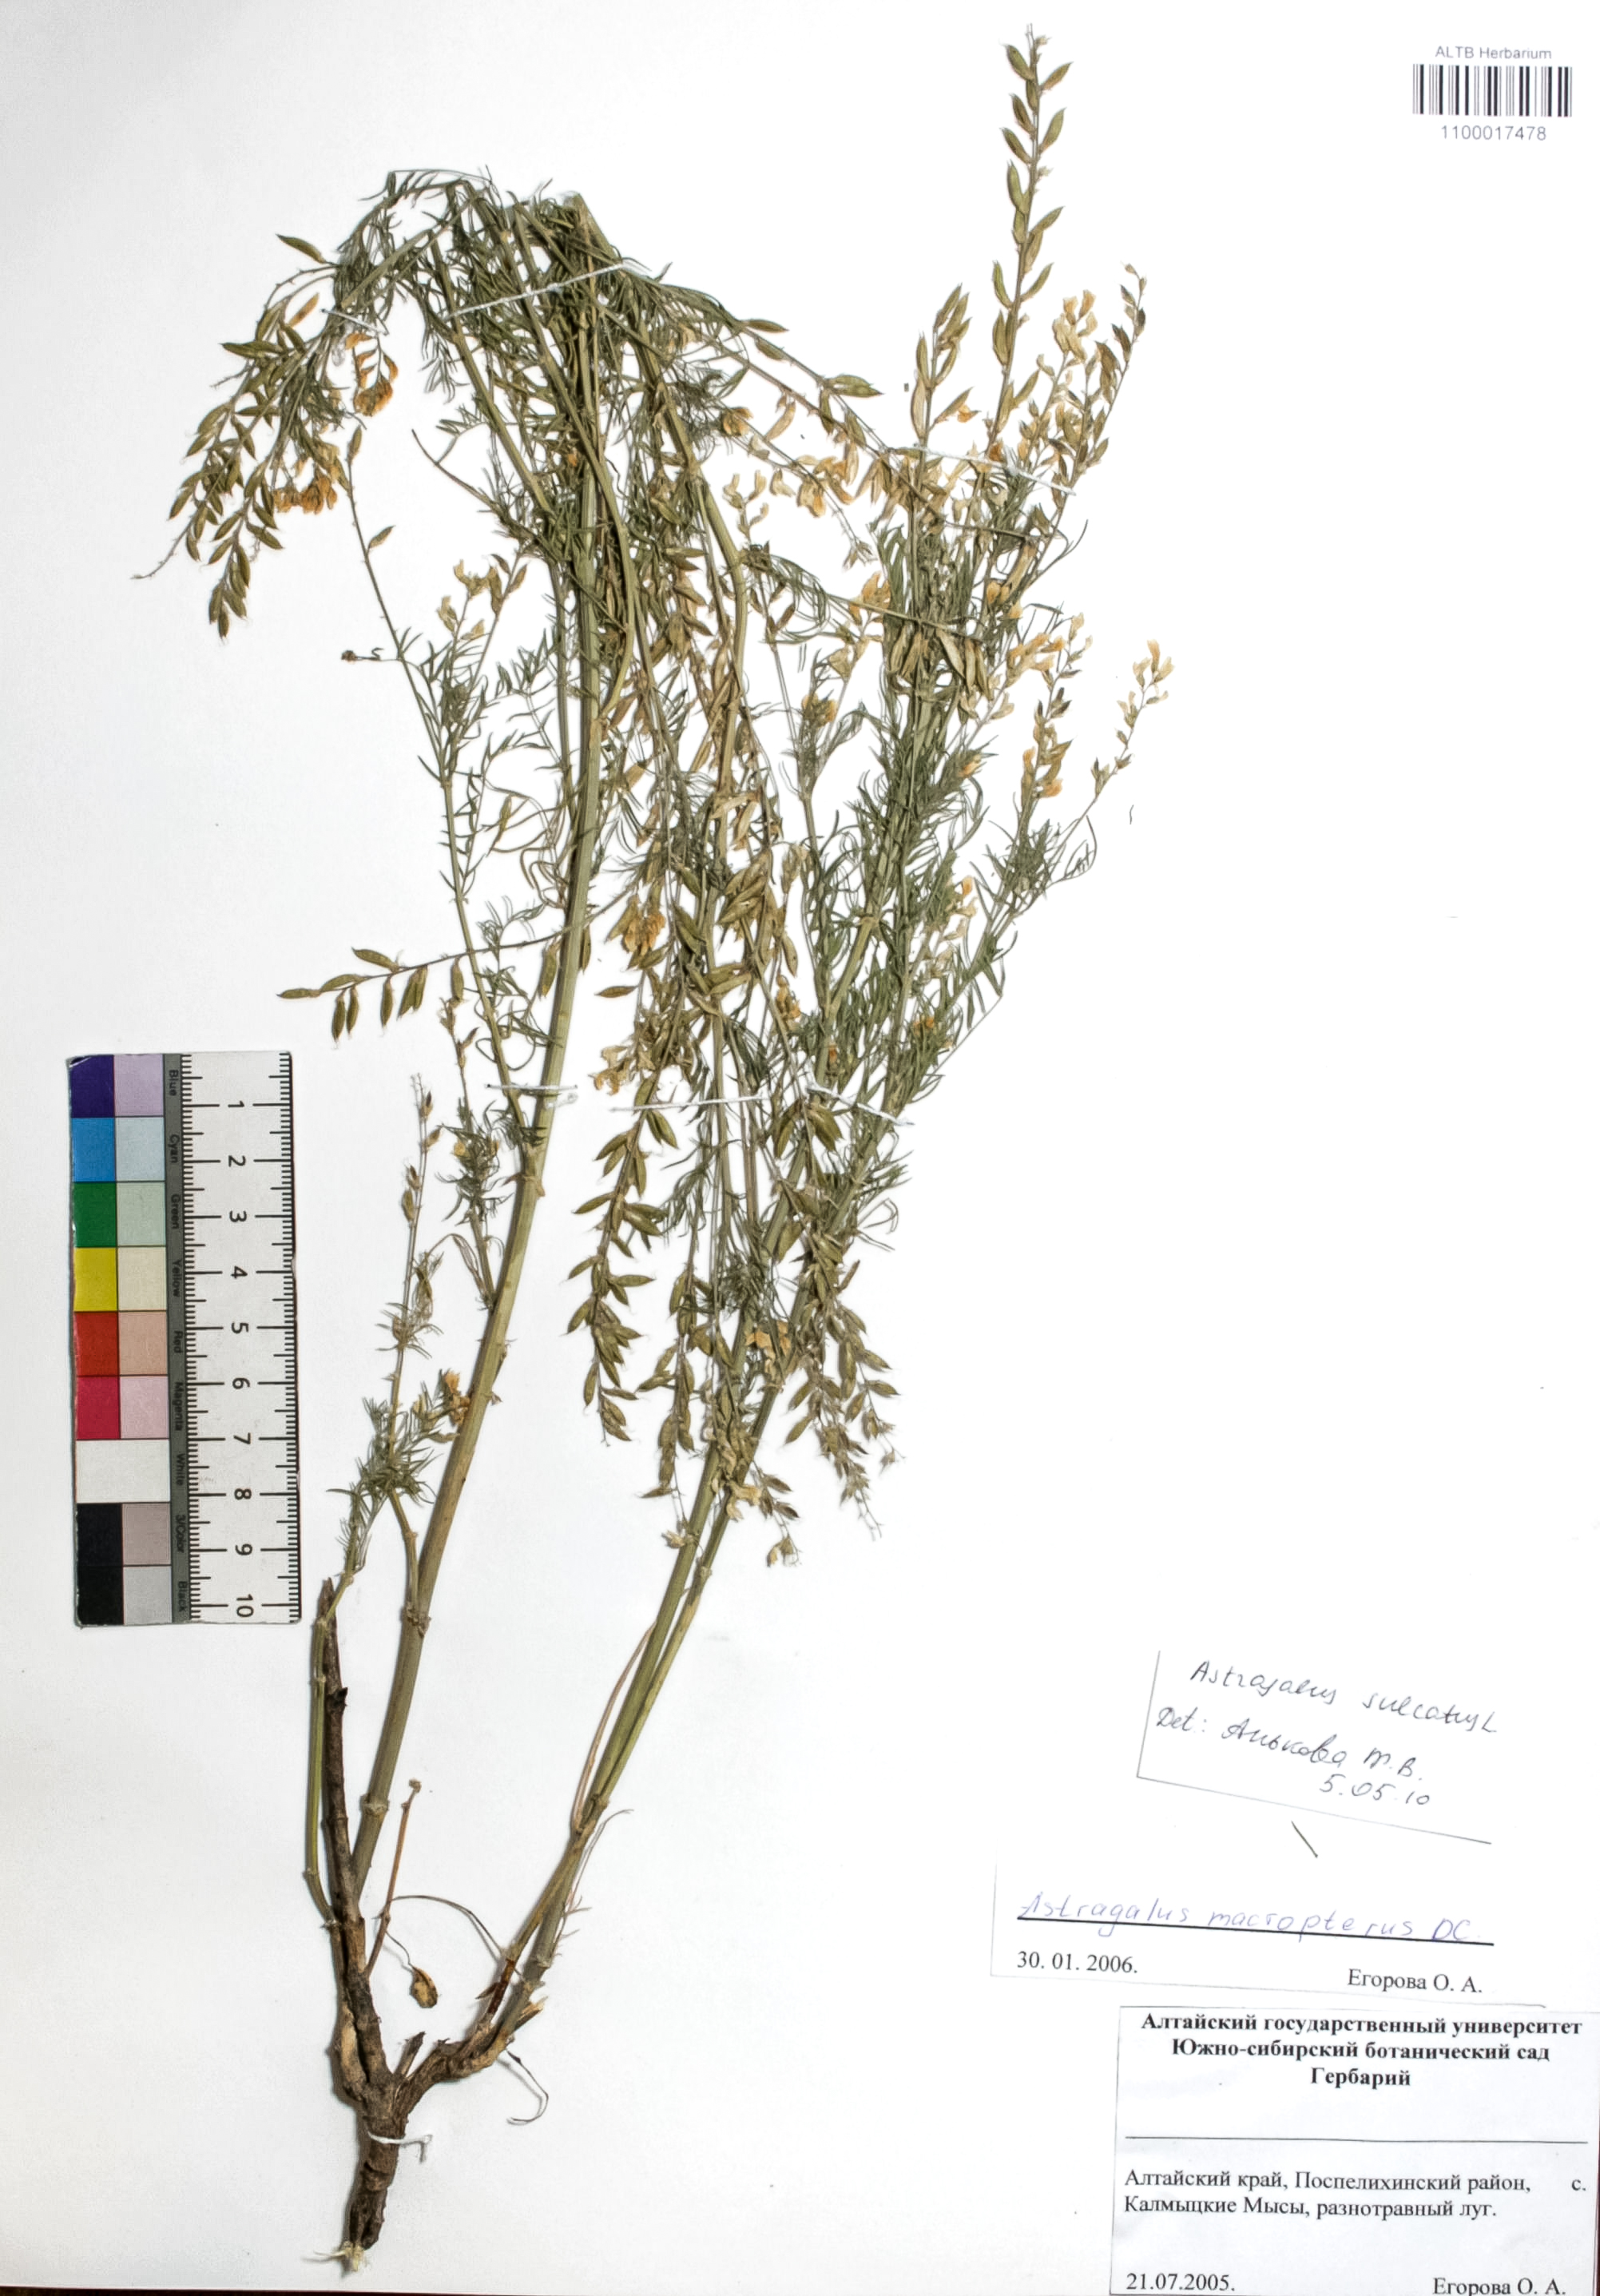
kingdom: Plantae
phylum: Tracheophyta
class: Magnoliopsida
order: Fabales
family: Fabaceae
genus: Astragalus
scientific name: Astragalus sulcatus
